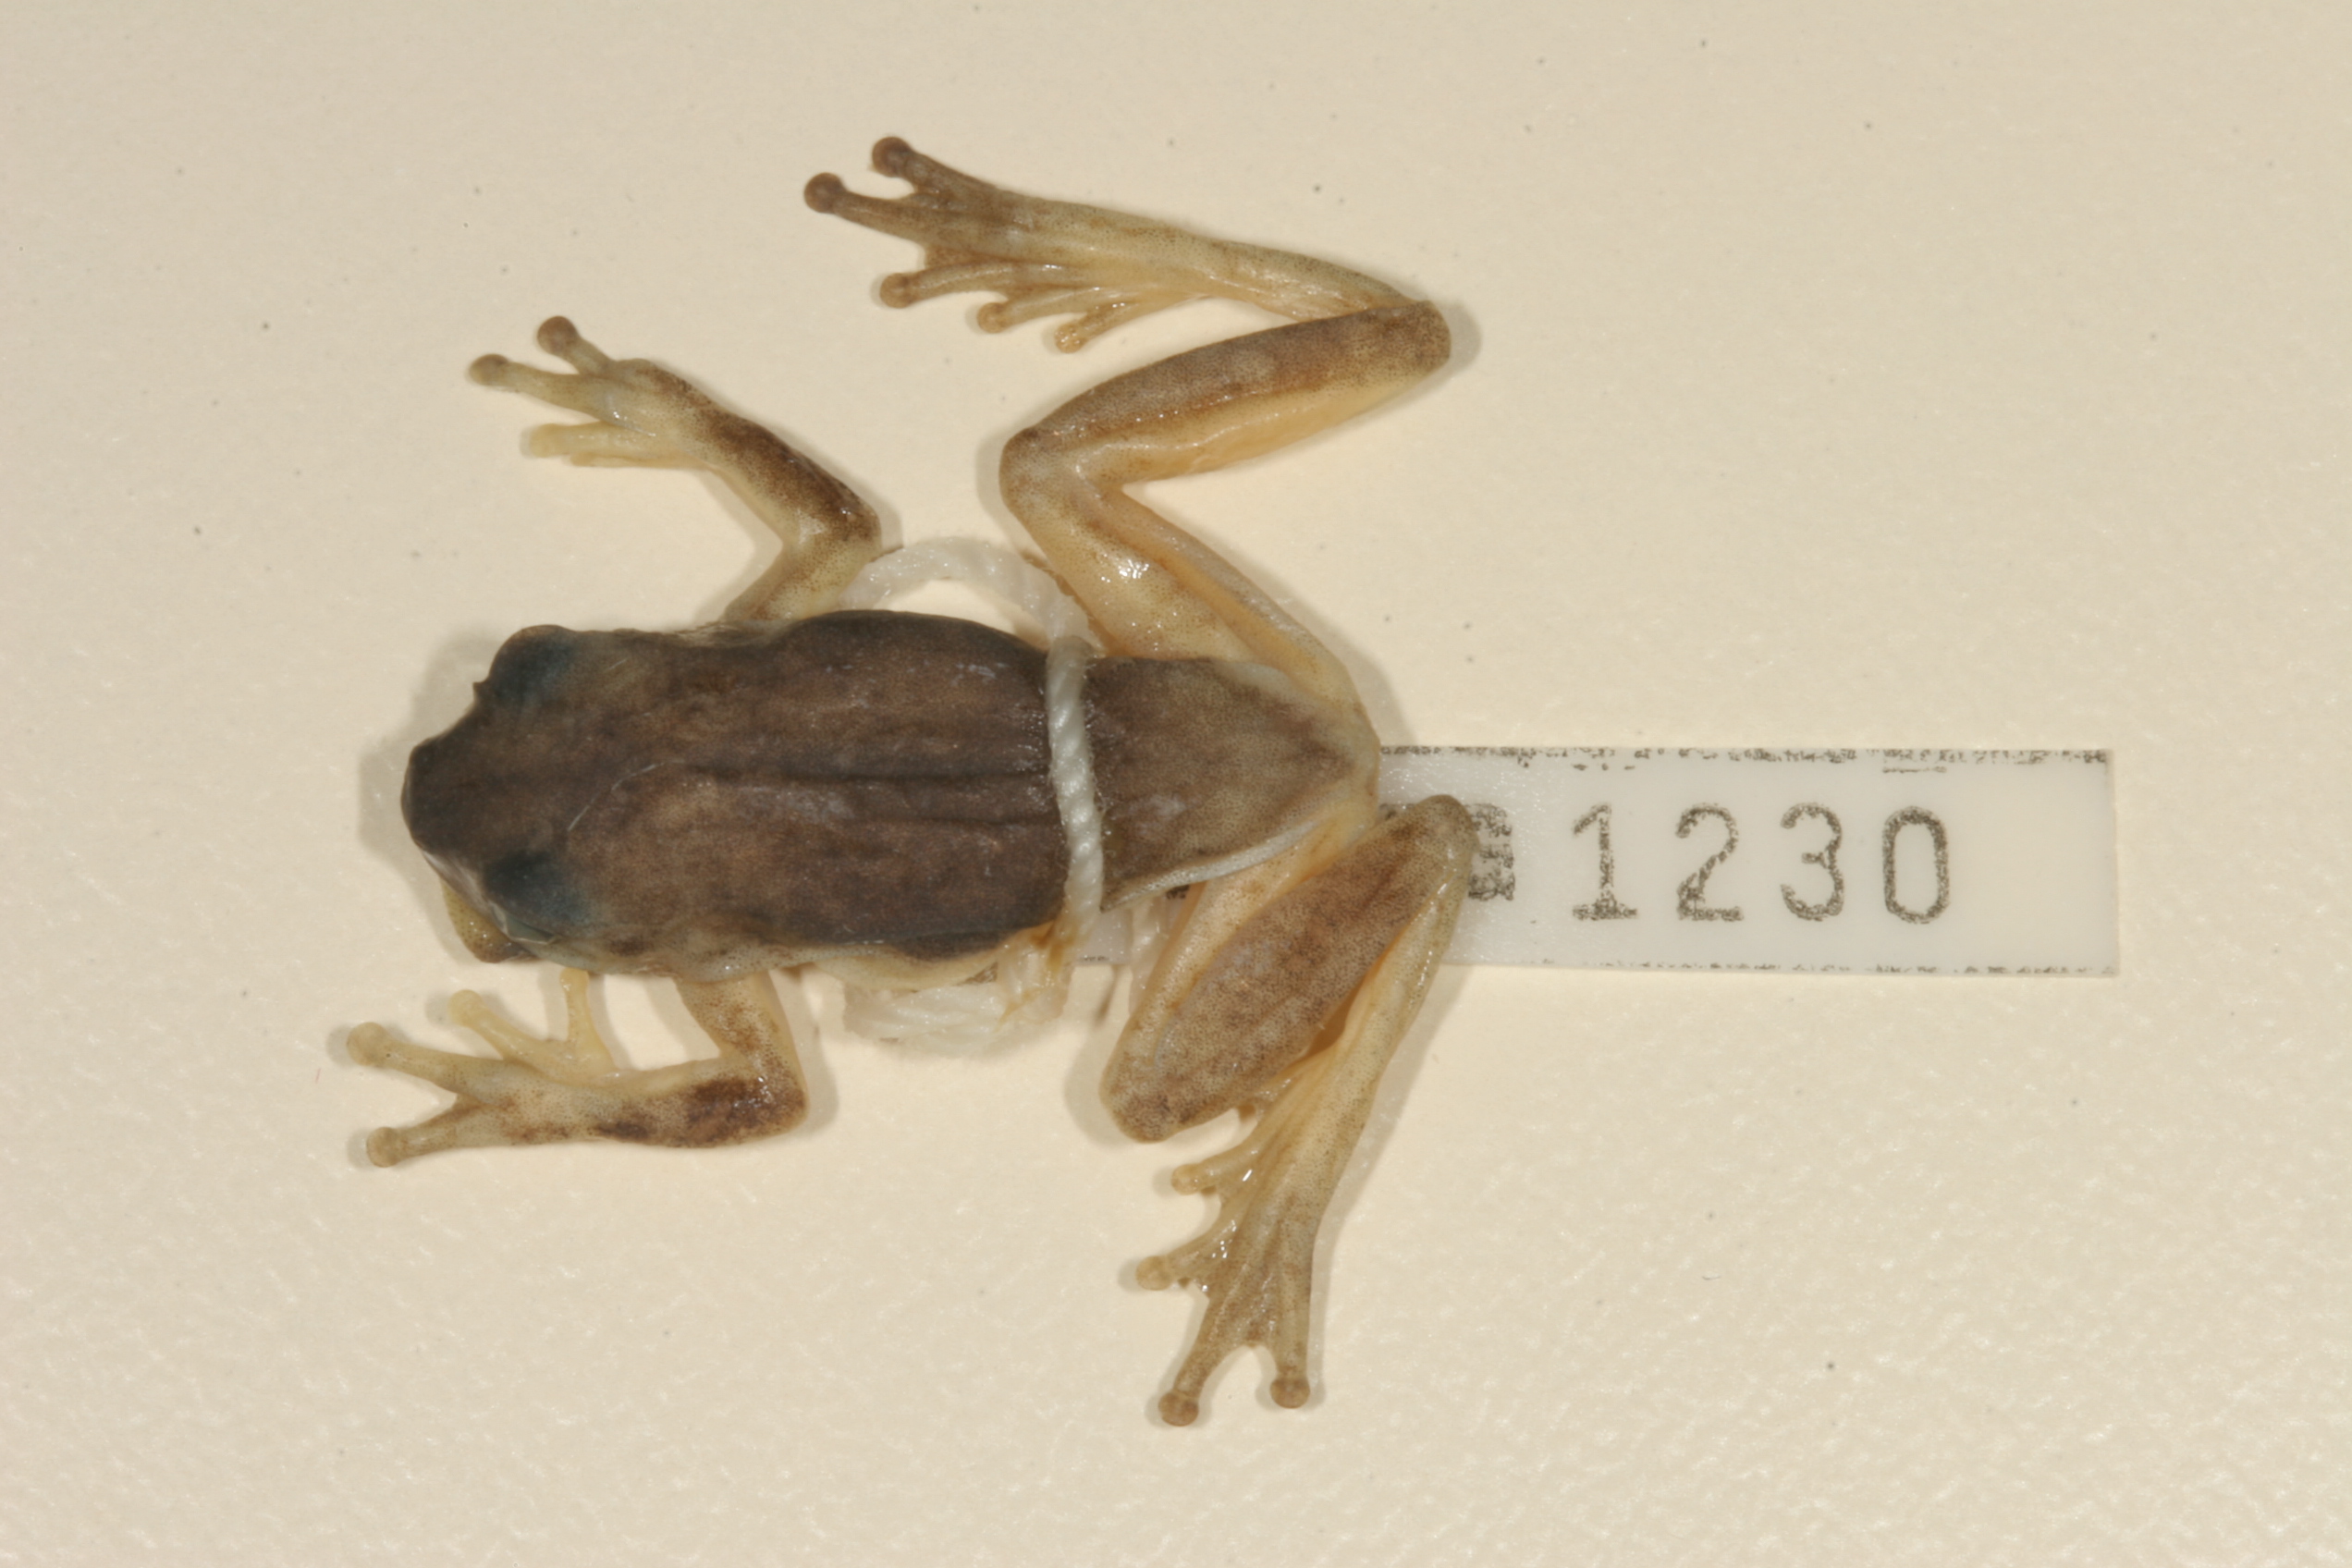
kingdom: Animalia
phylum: Chordata
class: Amphibia
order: Anura
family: Hyperoliidae
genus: Hyperolius
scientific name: Hyperolius marmoratus
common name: Painted reed frog
